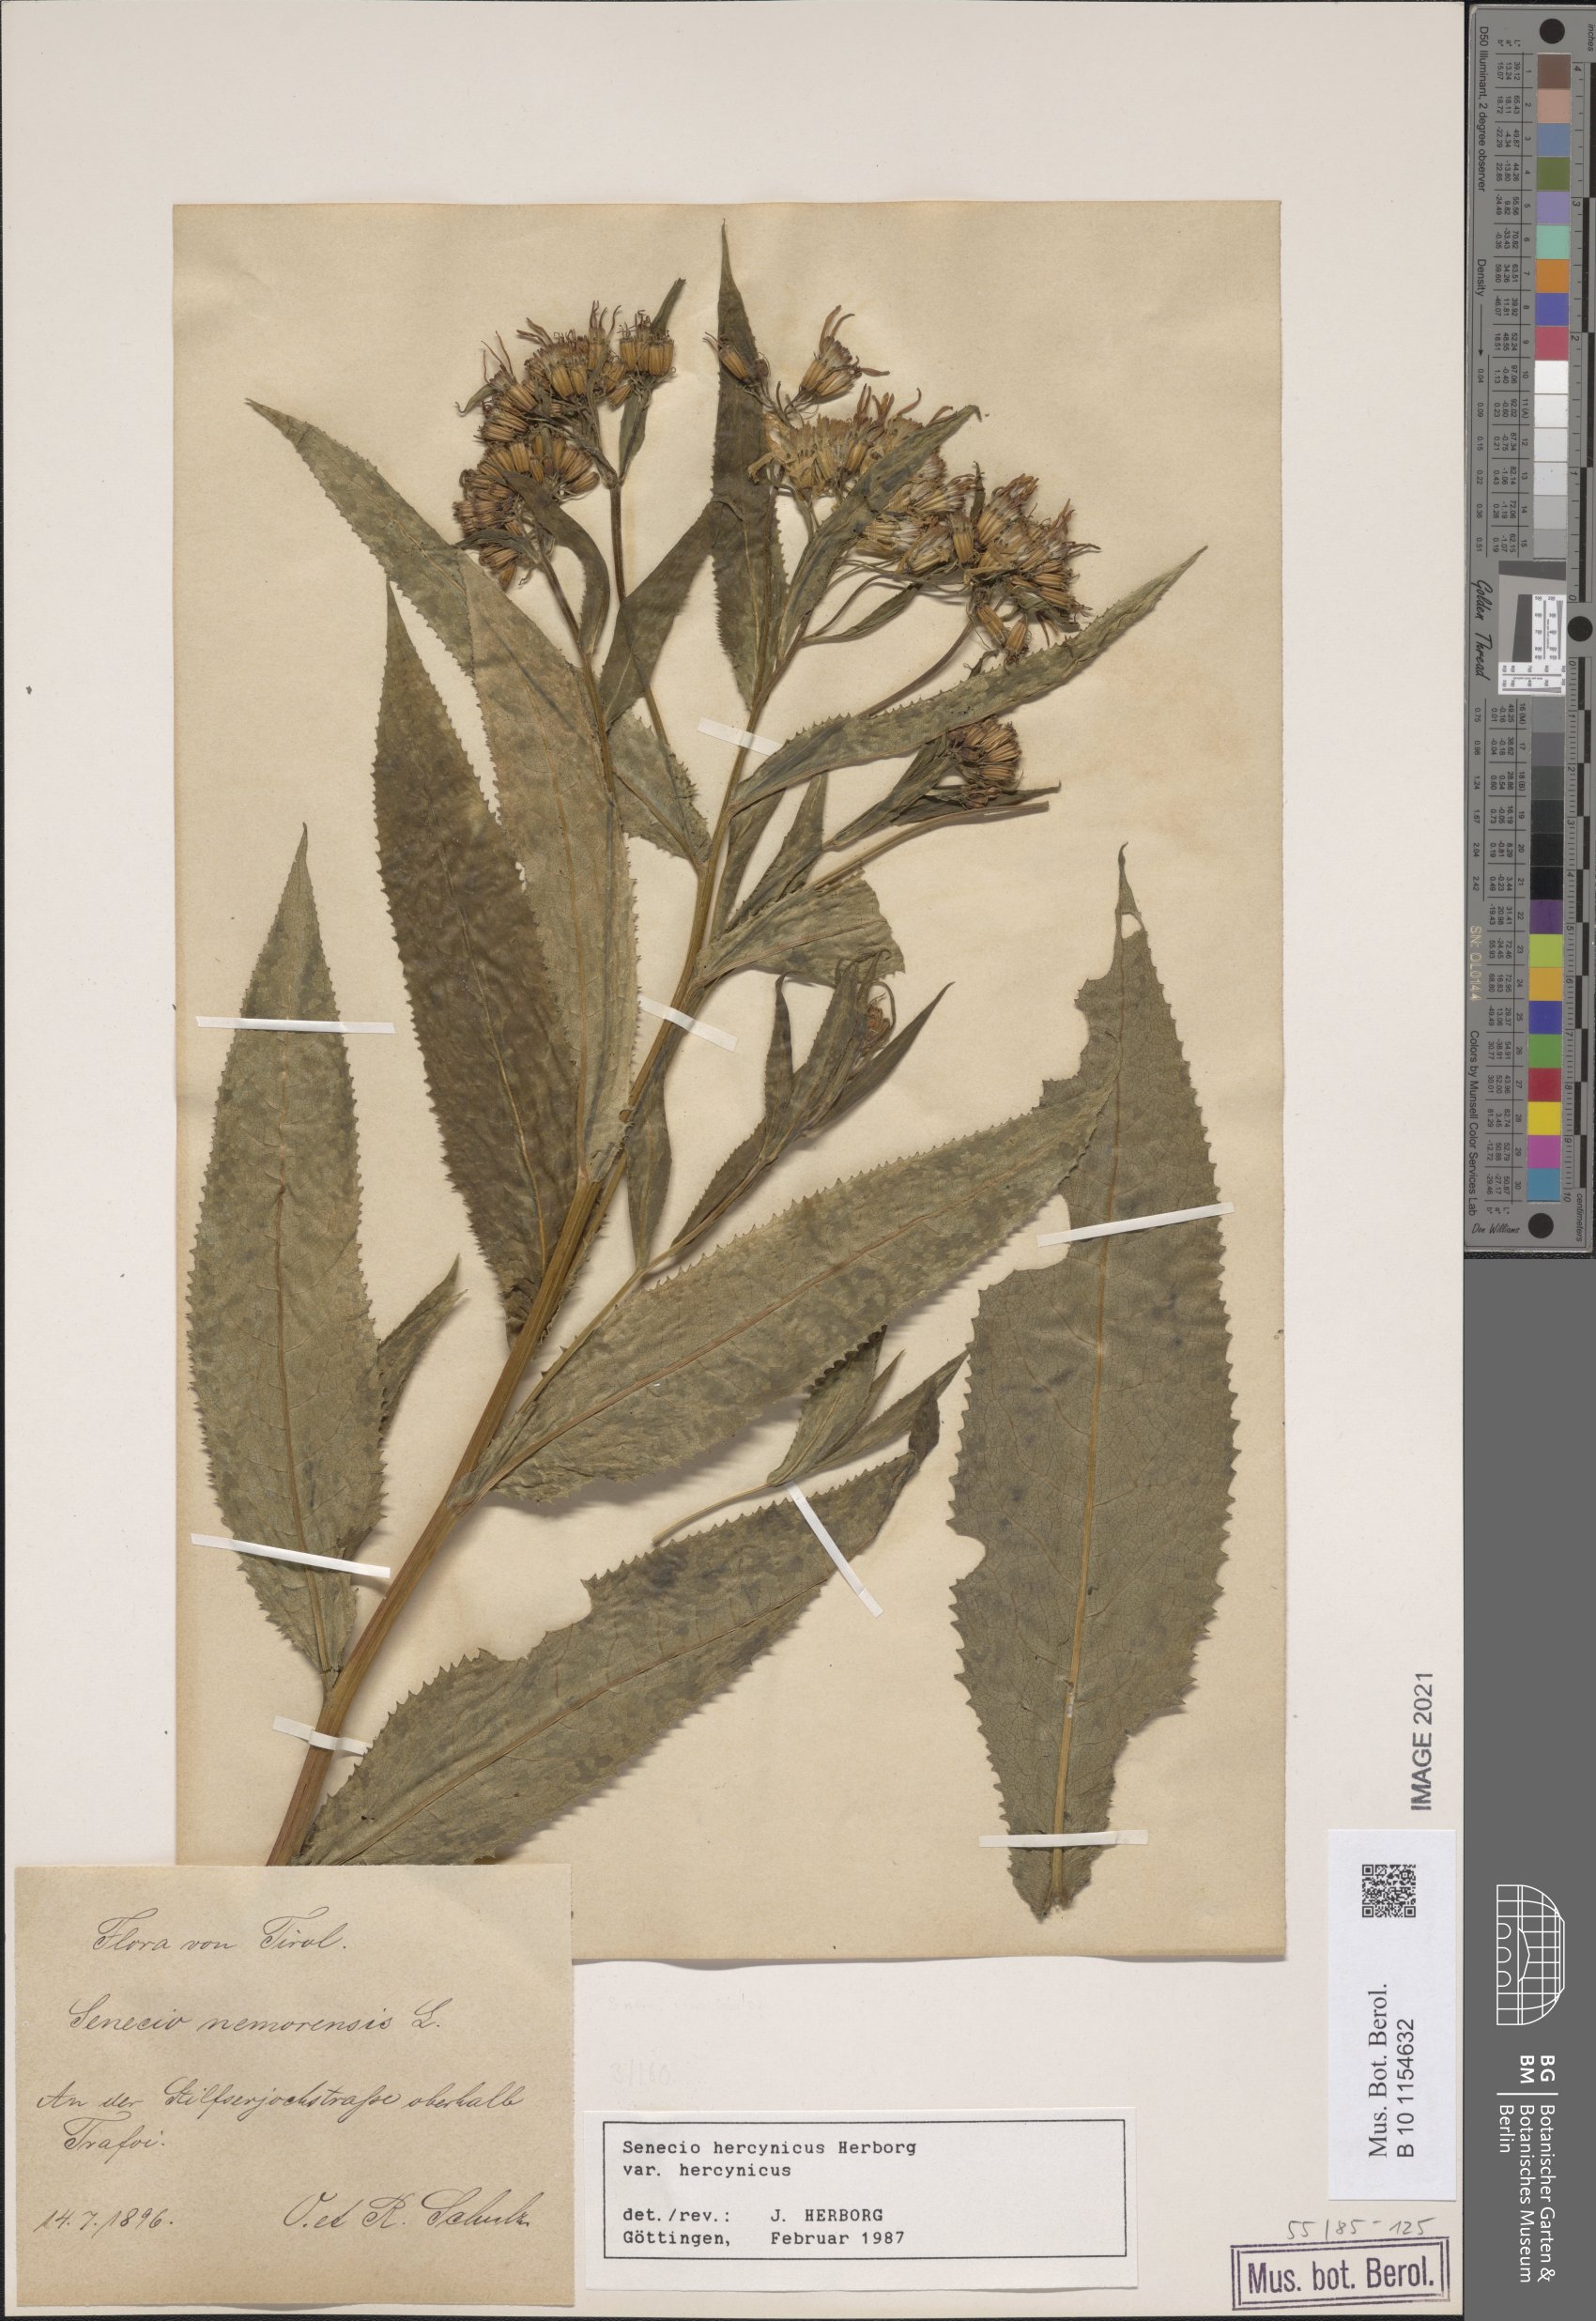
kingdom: Plantae
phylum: Tracheophyta
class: Magnoliopsida
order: Asterales
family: Asteraceae
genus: Senecio
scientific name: Senecio hercynicus
